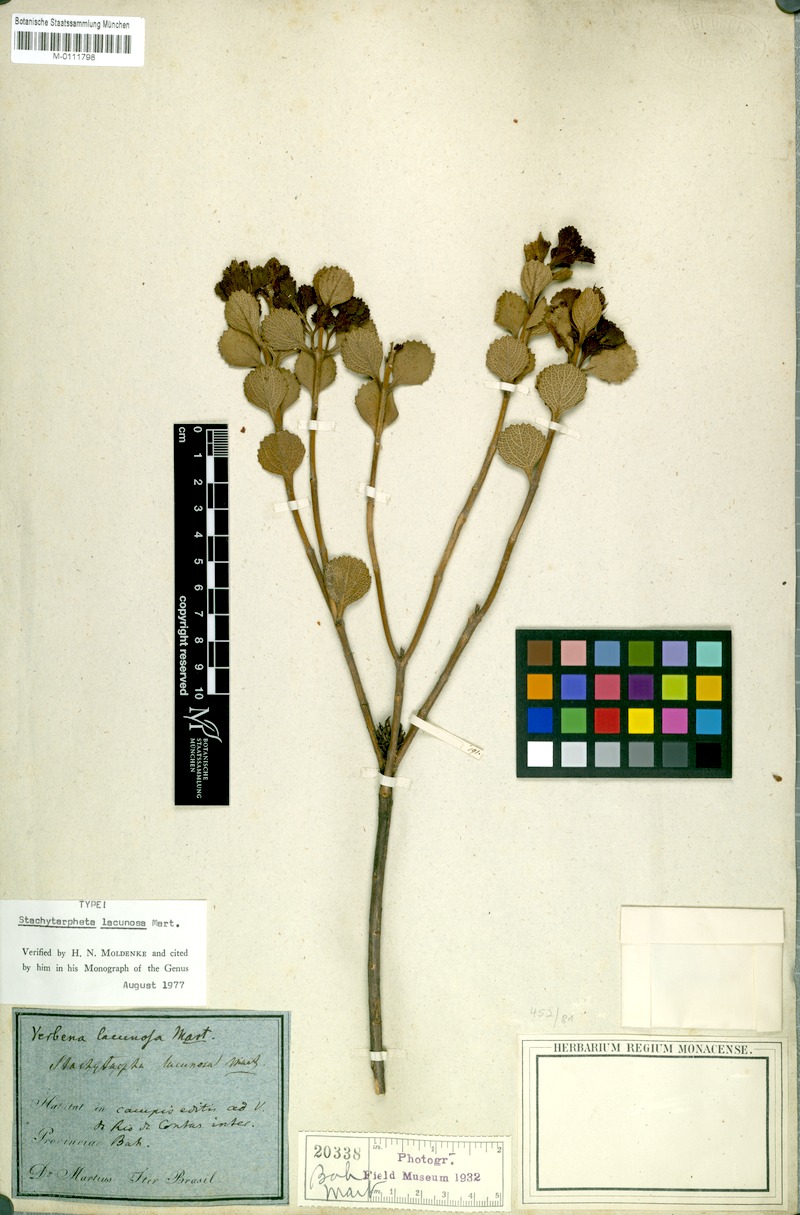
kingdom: Plantae
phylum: Tracheophyta
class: Magnoliopsida
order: Lamiales
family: Verbenaceae
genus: Stachytarpheta
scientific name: Stachytarpheta lacunosa
